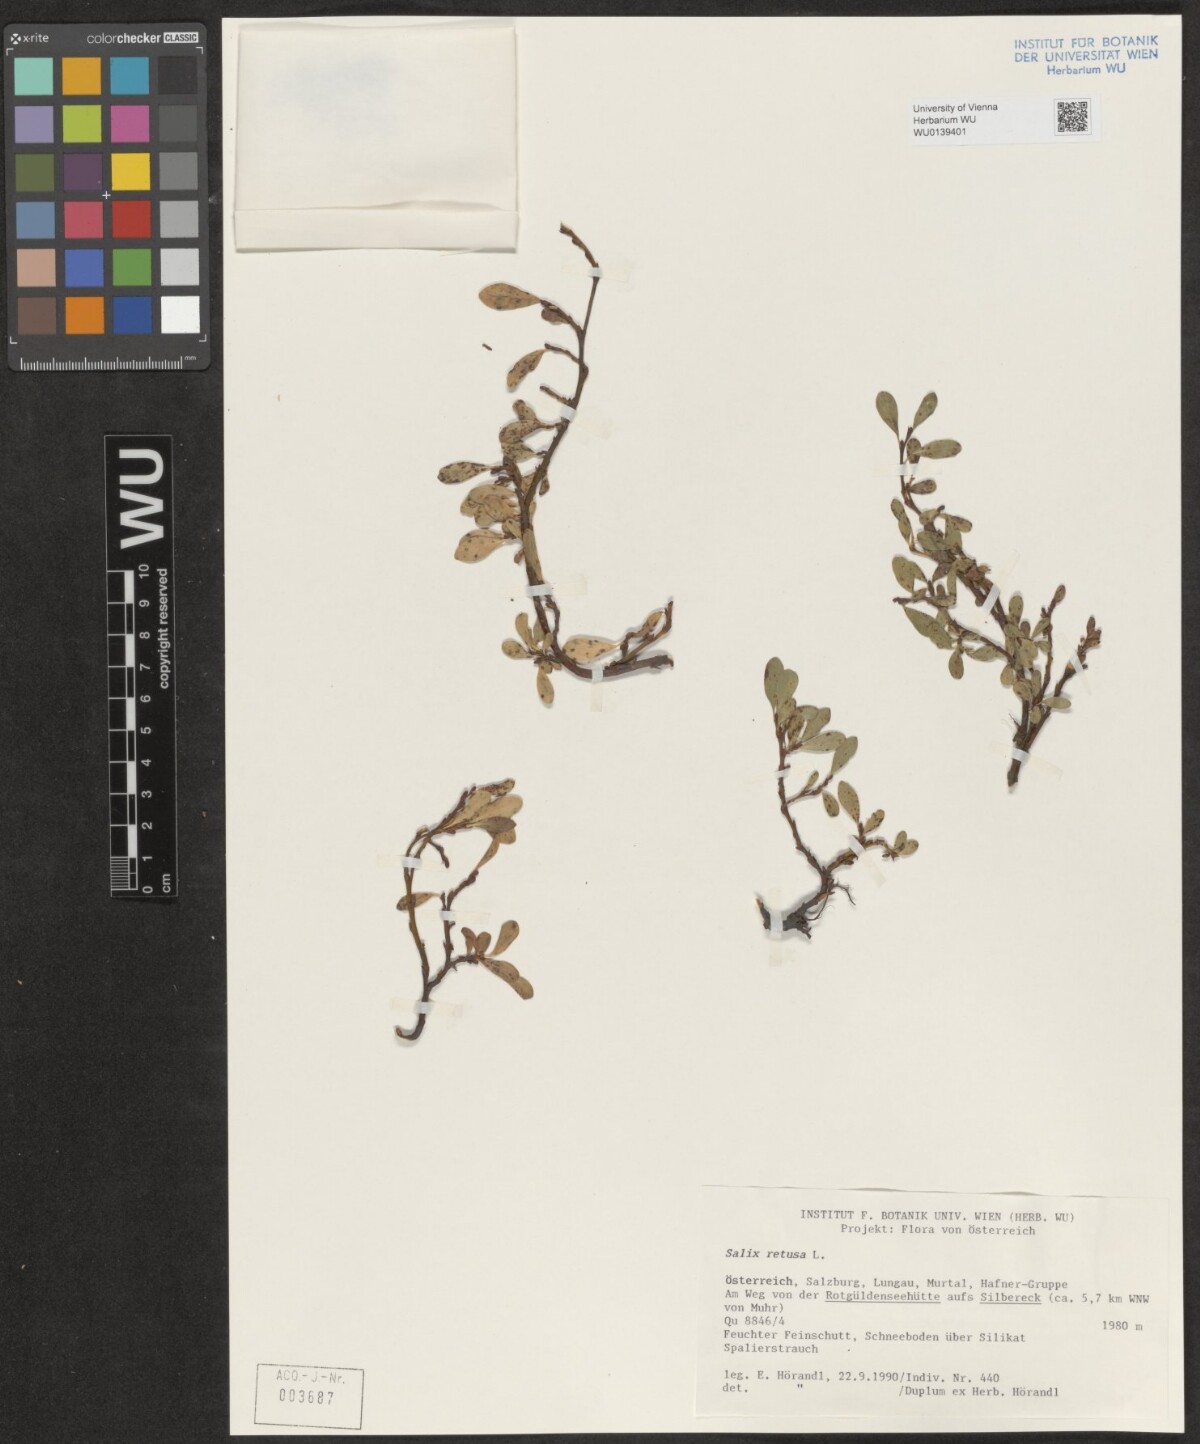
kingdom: Plantae
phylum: Tracheophyta
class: Magnoliopsida
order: Malpighiales
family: Salicaceae
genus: Salix
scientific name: Salix retusa
